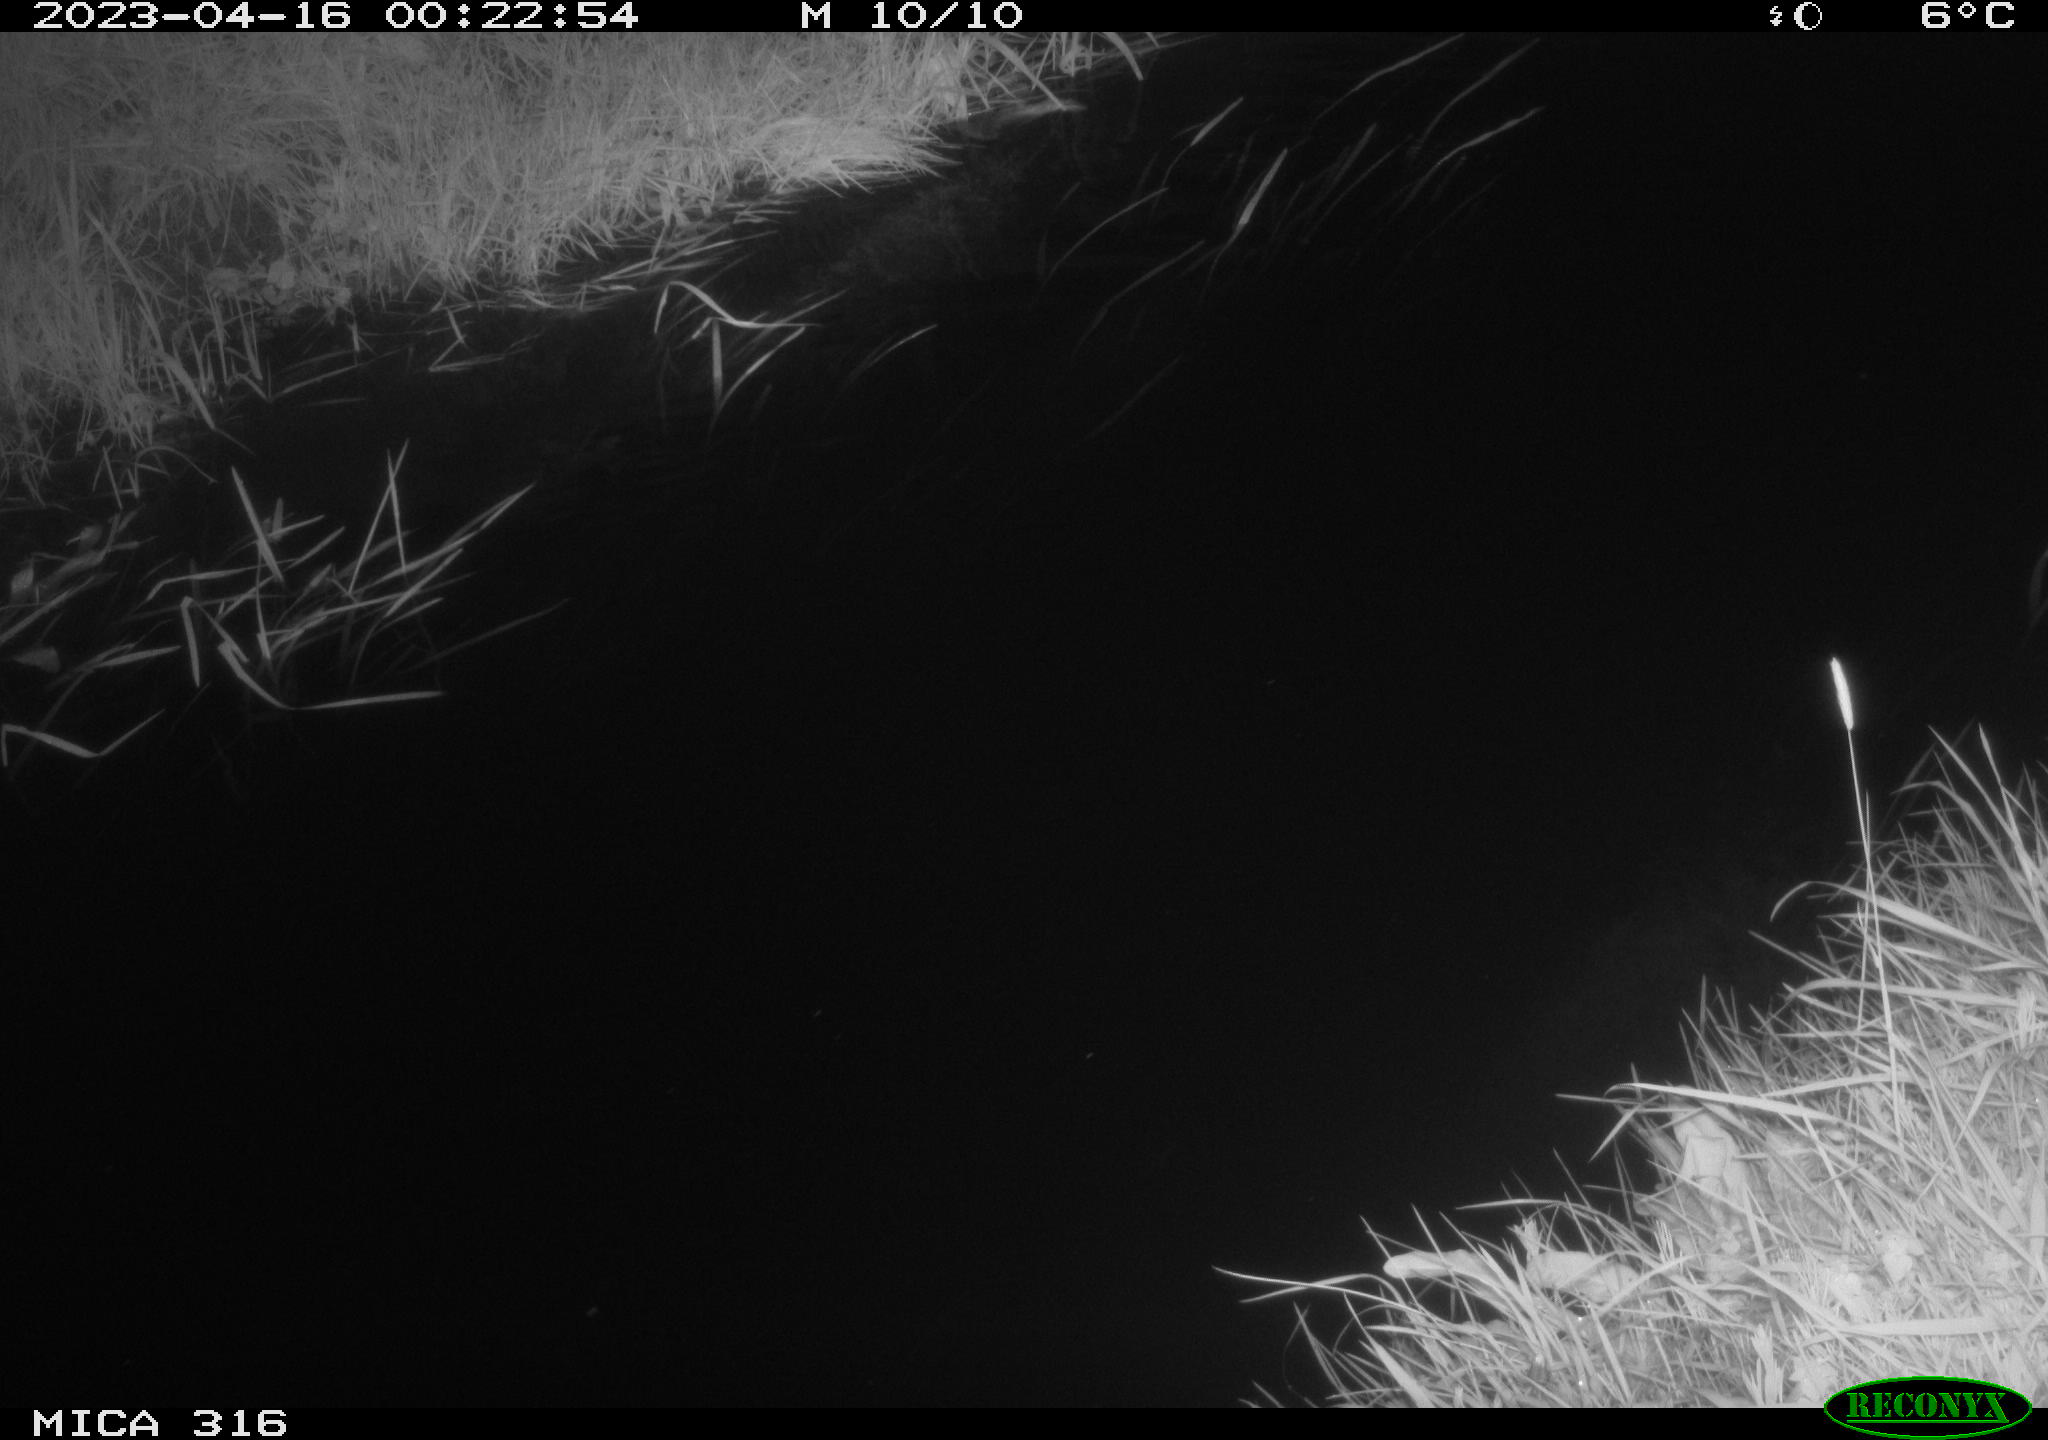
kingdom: Animalia
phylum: Chordata
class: Aves
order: Anseriformes
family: Anatidae
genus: Anas
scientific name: Anas
